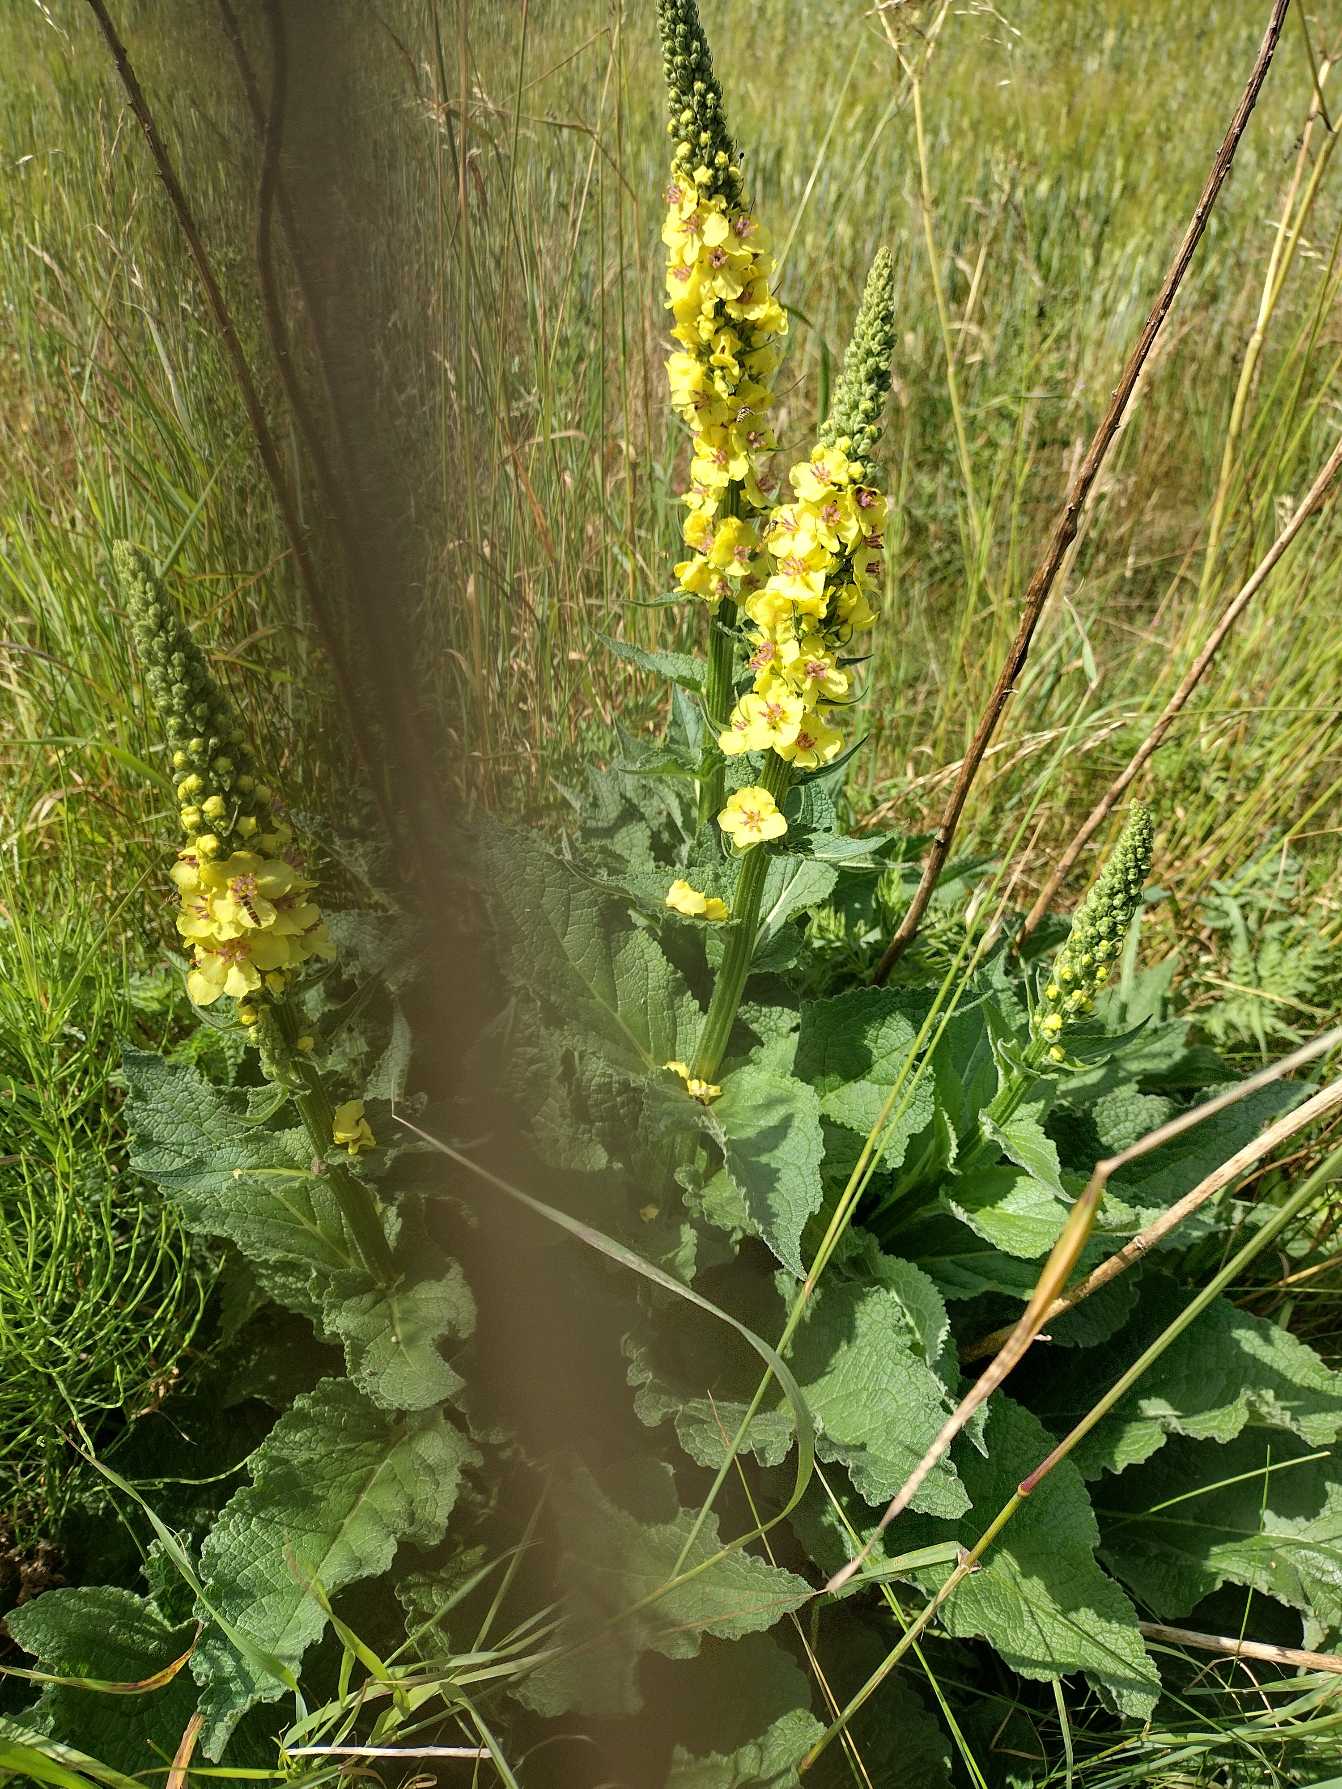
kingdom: Plantae
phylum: Tracheophyta
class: Magnoliopsida
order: Lamiales
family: Scrophulariaceae
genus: Verbascum
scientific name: Verbascum nigrum
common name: Mørk kongelys
